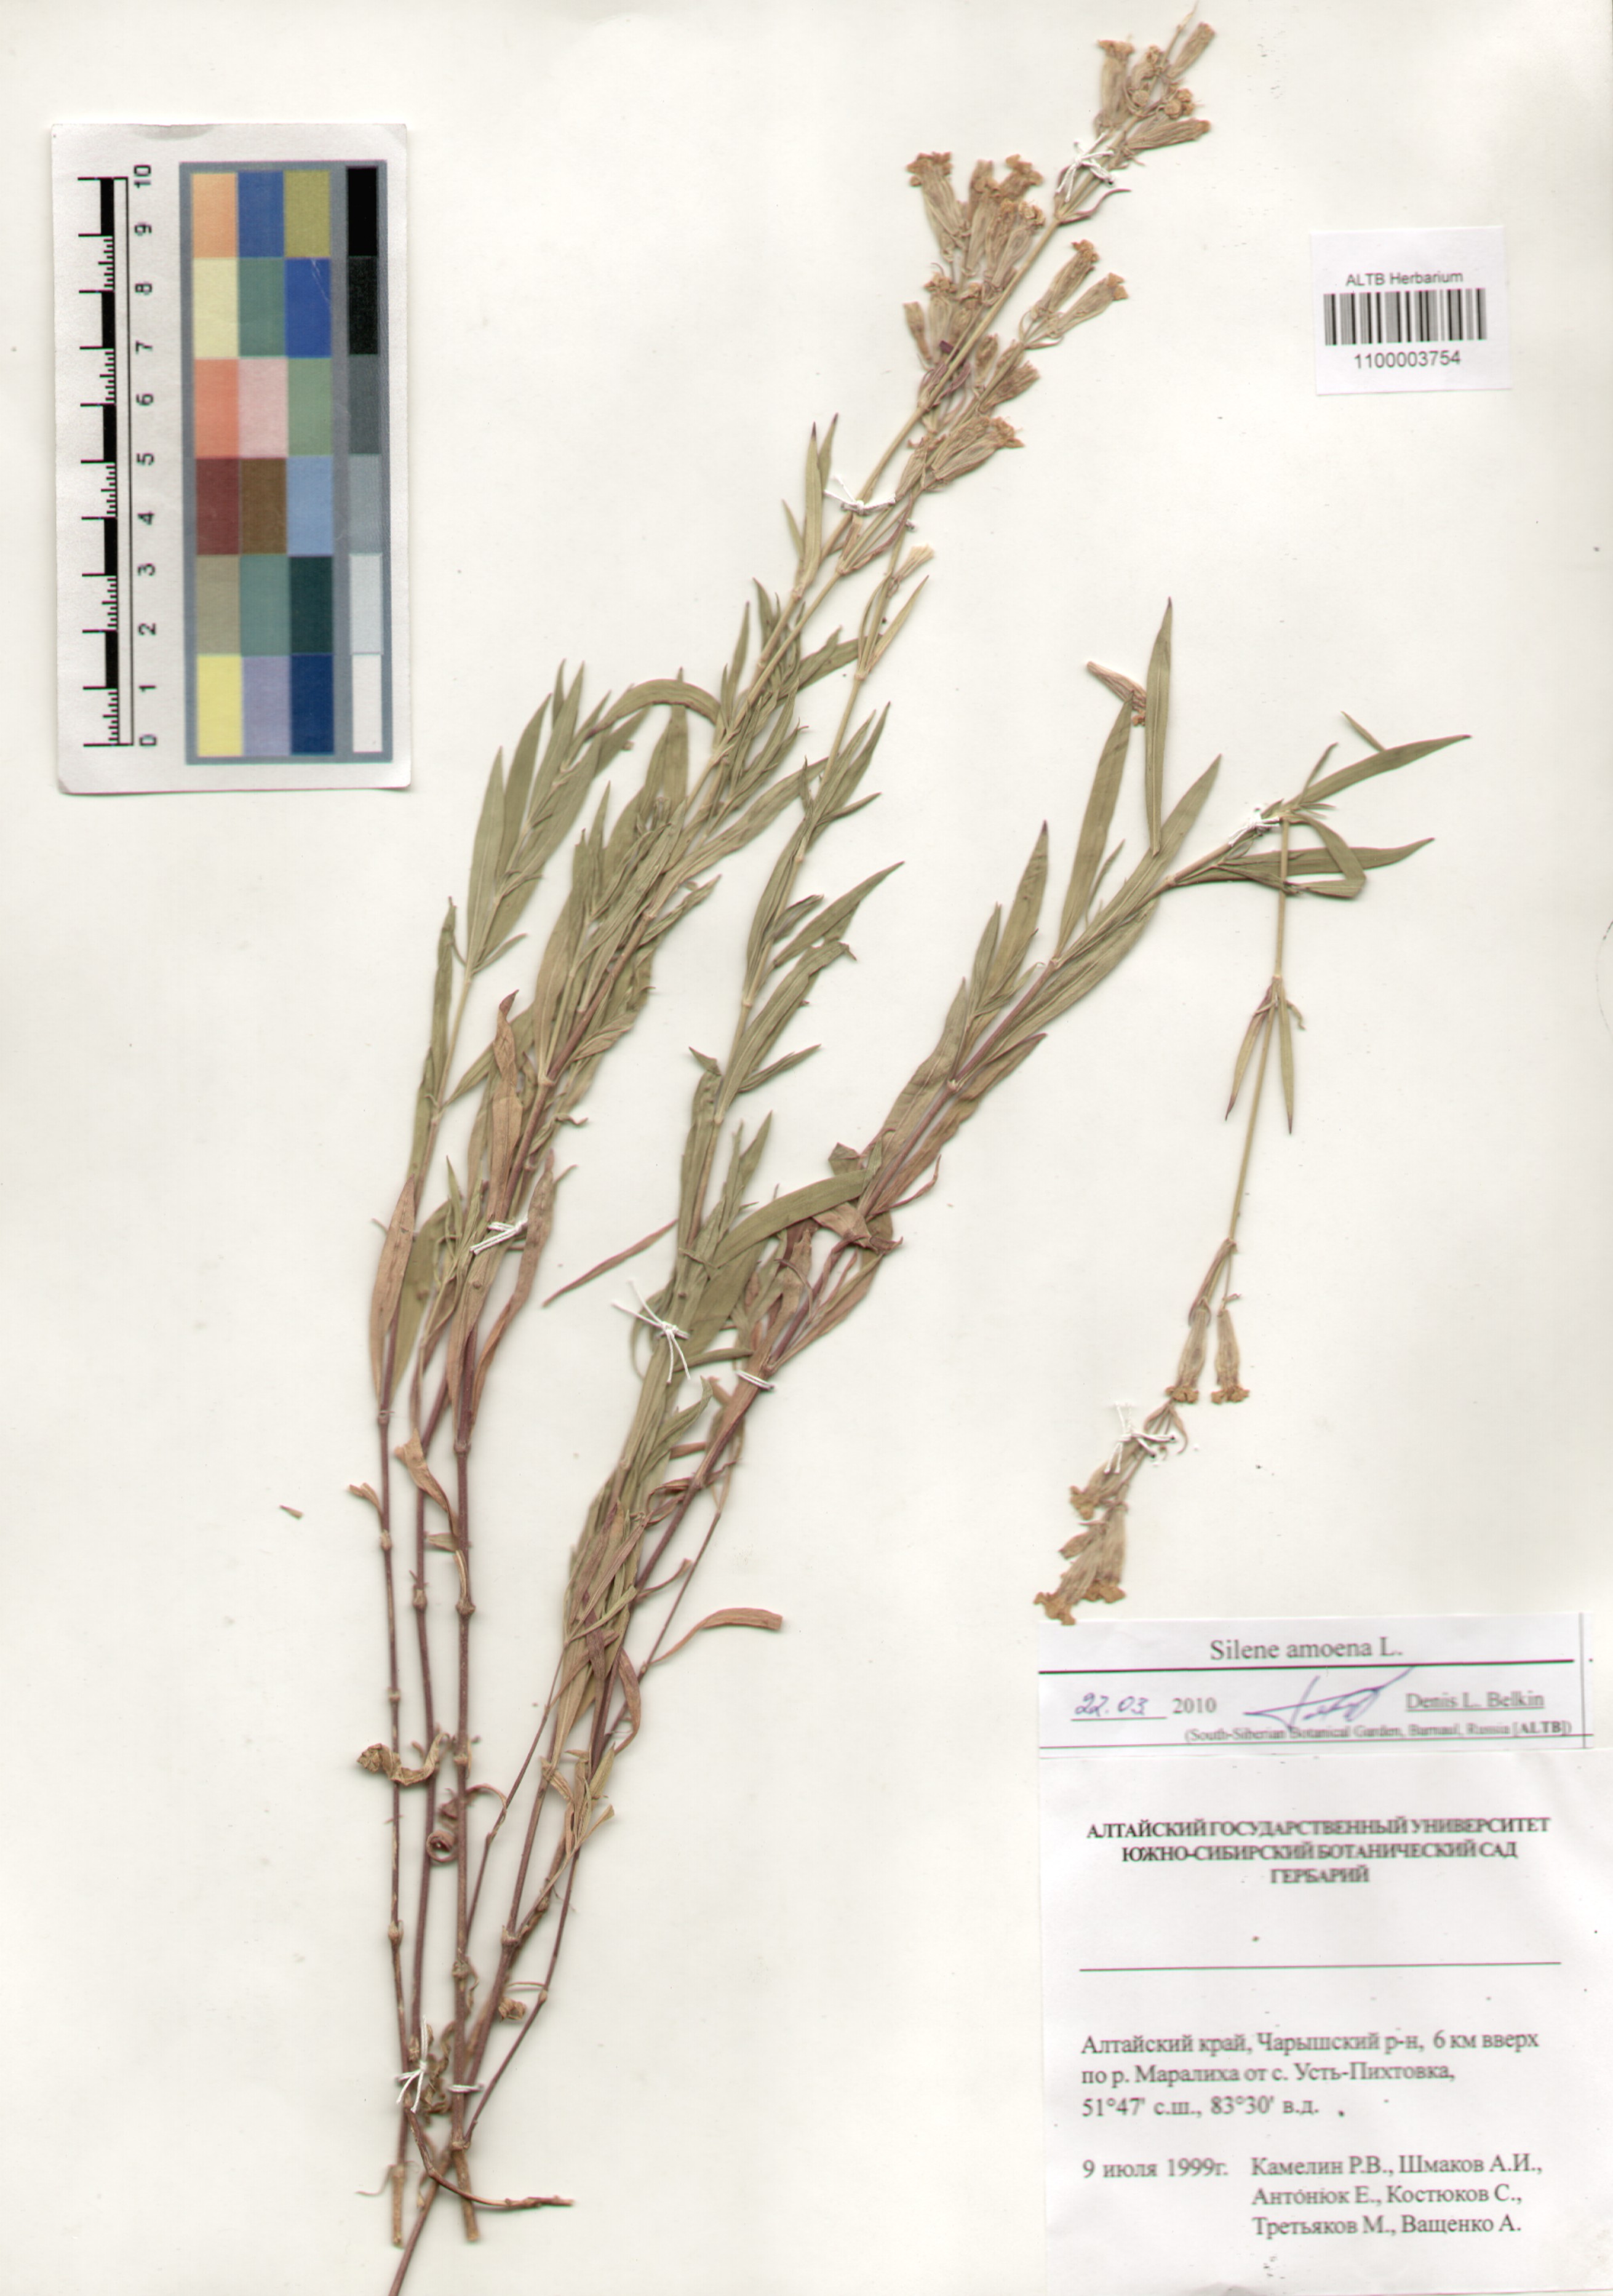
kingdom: Plantae
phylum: Tracheophyta
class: Magnoliopsida
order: Caryophyllales
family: Caryophyllaceae
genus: Silene
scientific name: Silene amoena
